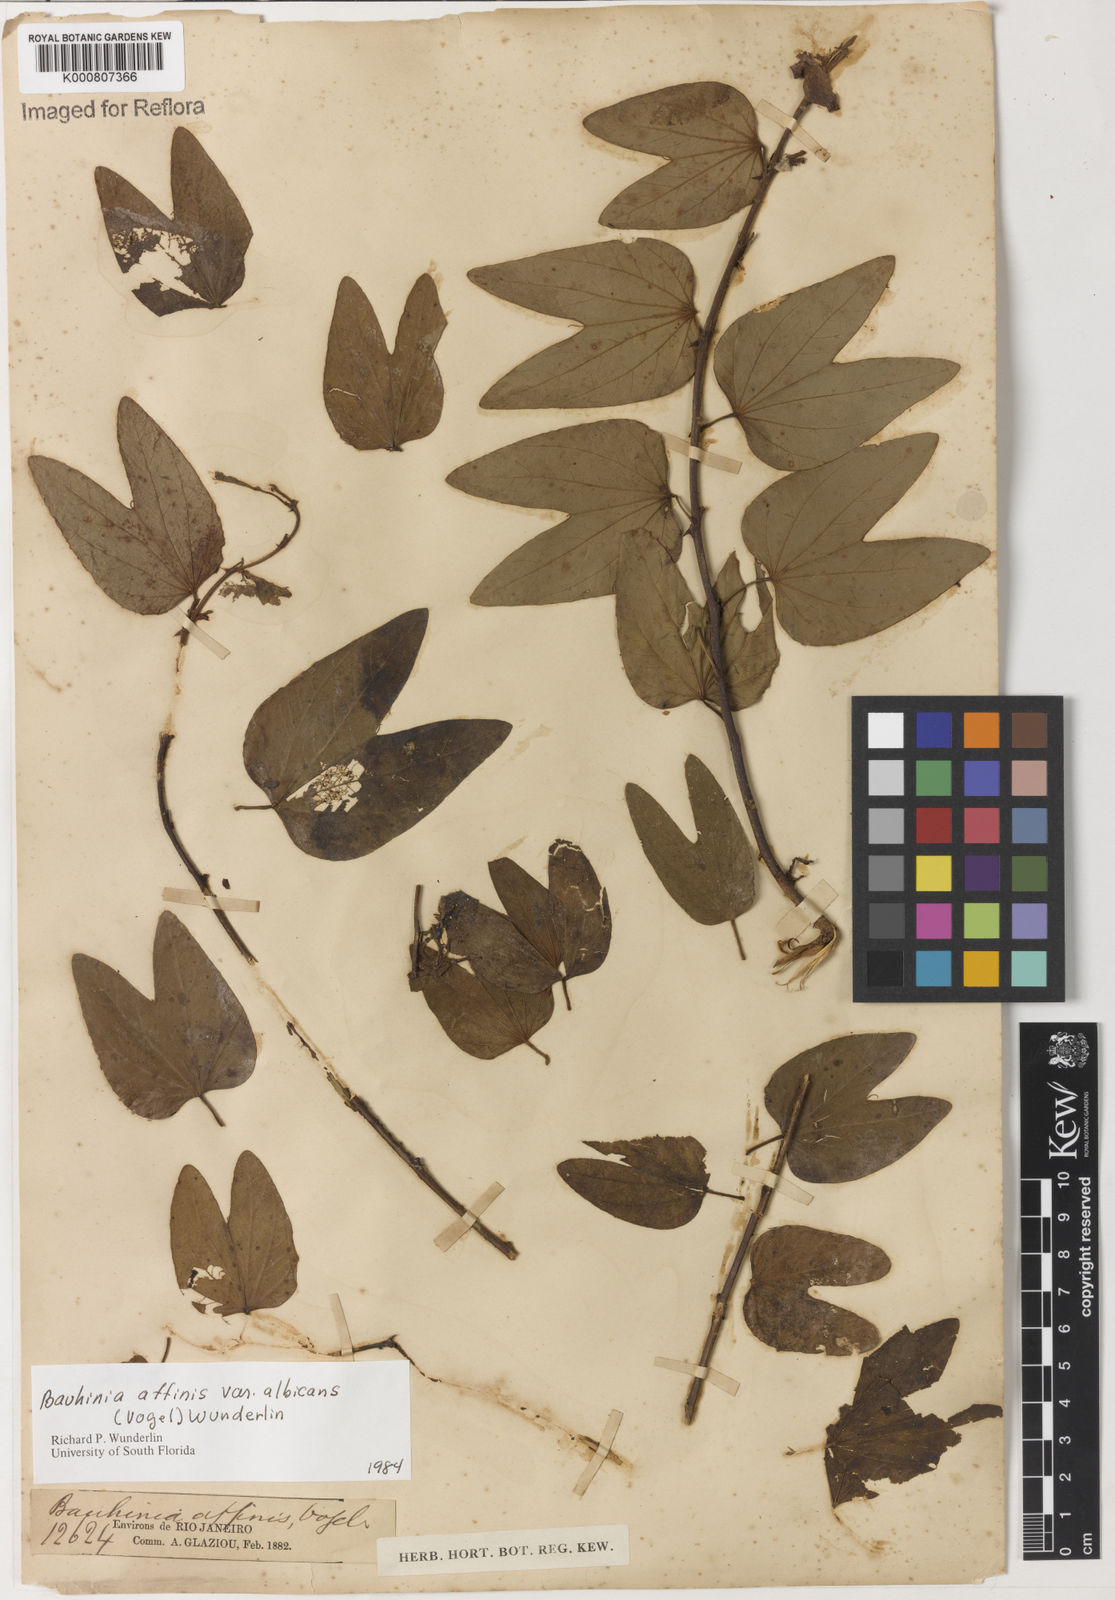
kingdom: Plantae
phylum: Tracheophyta
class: Magnoliopsida
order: Fabales
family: Fabaceae
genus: Bauhinia
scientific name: Bauhinia affinis
